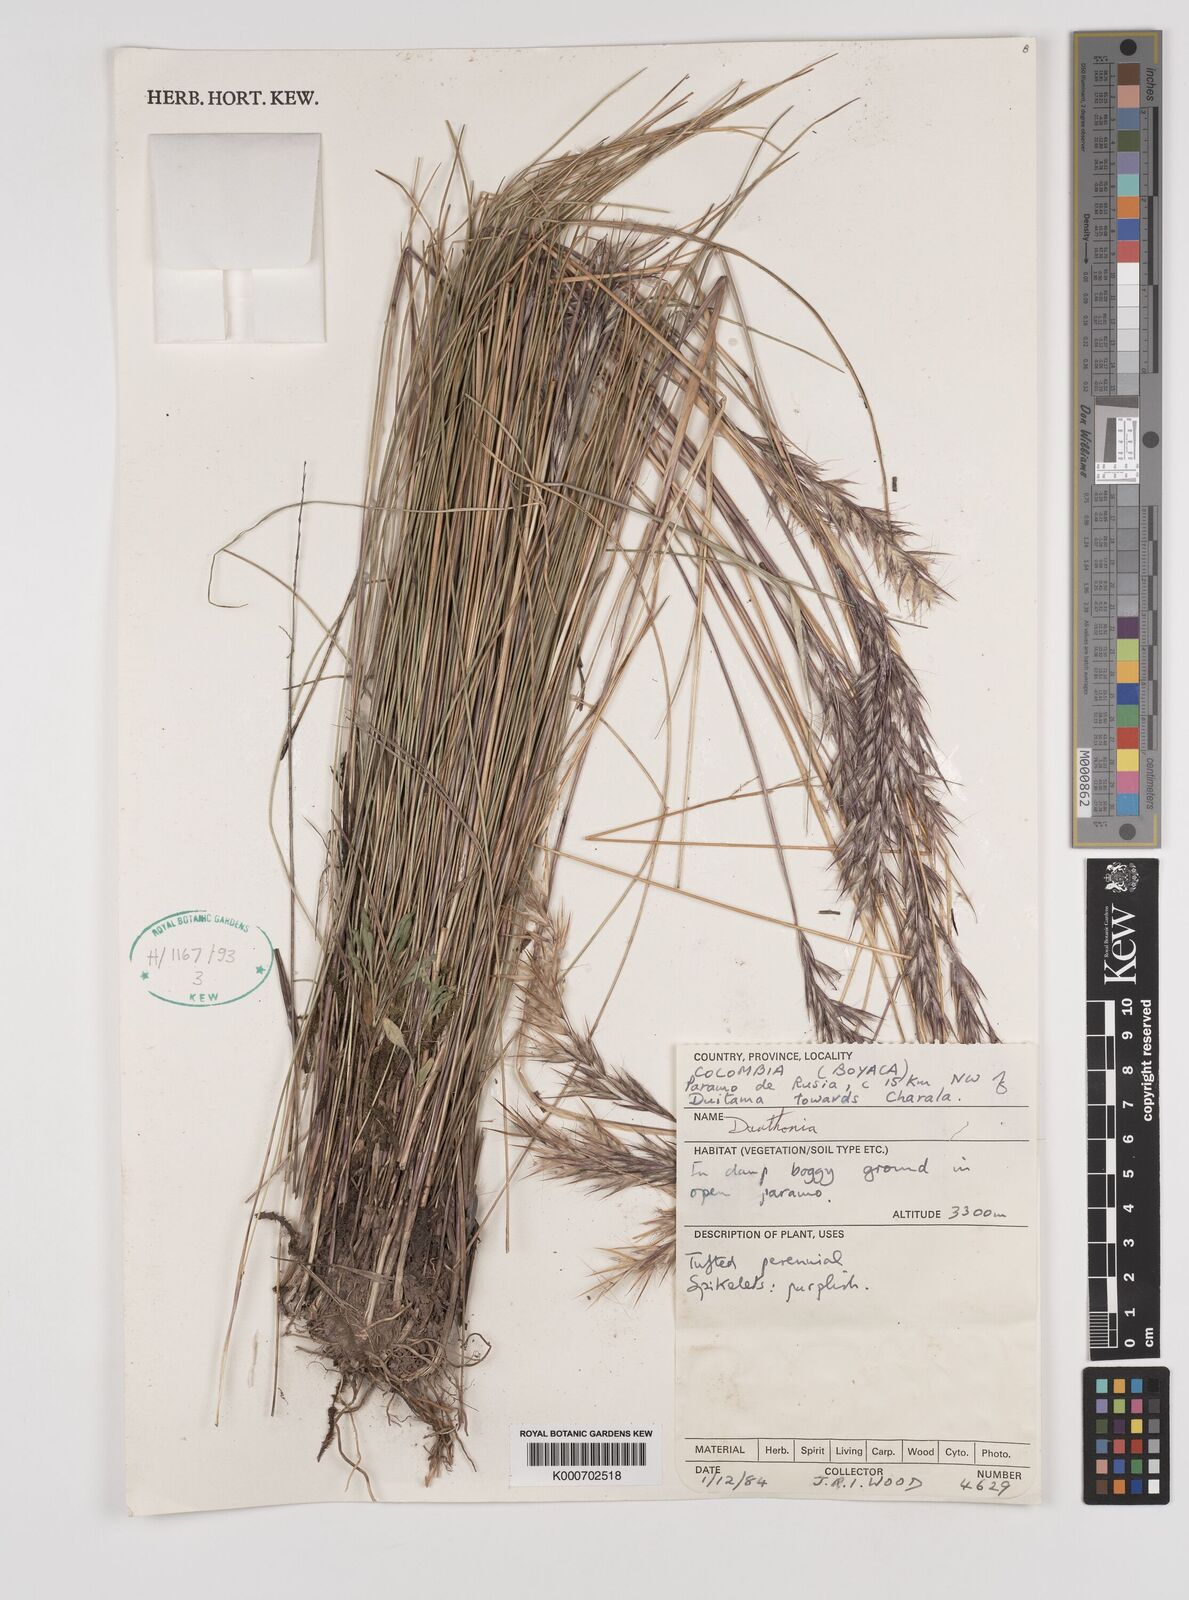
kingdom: Plantae
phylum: Tracheophyta
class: Liliopsida
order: Poales
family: Poaceae
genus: Danthonia
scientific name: Danthonia secundiflora
